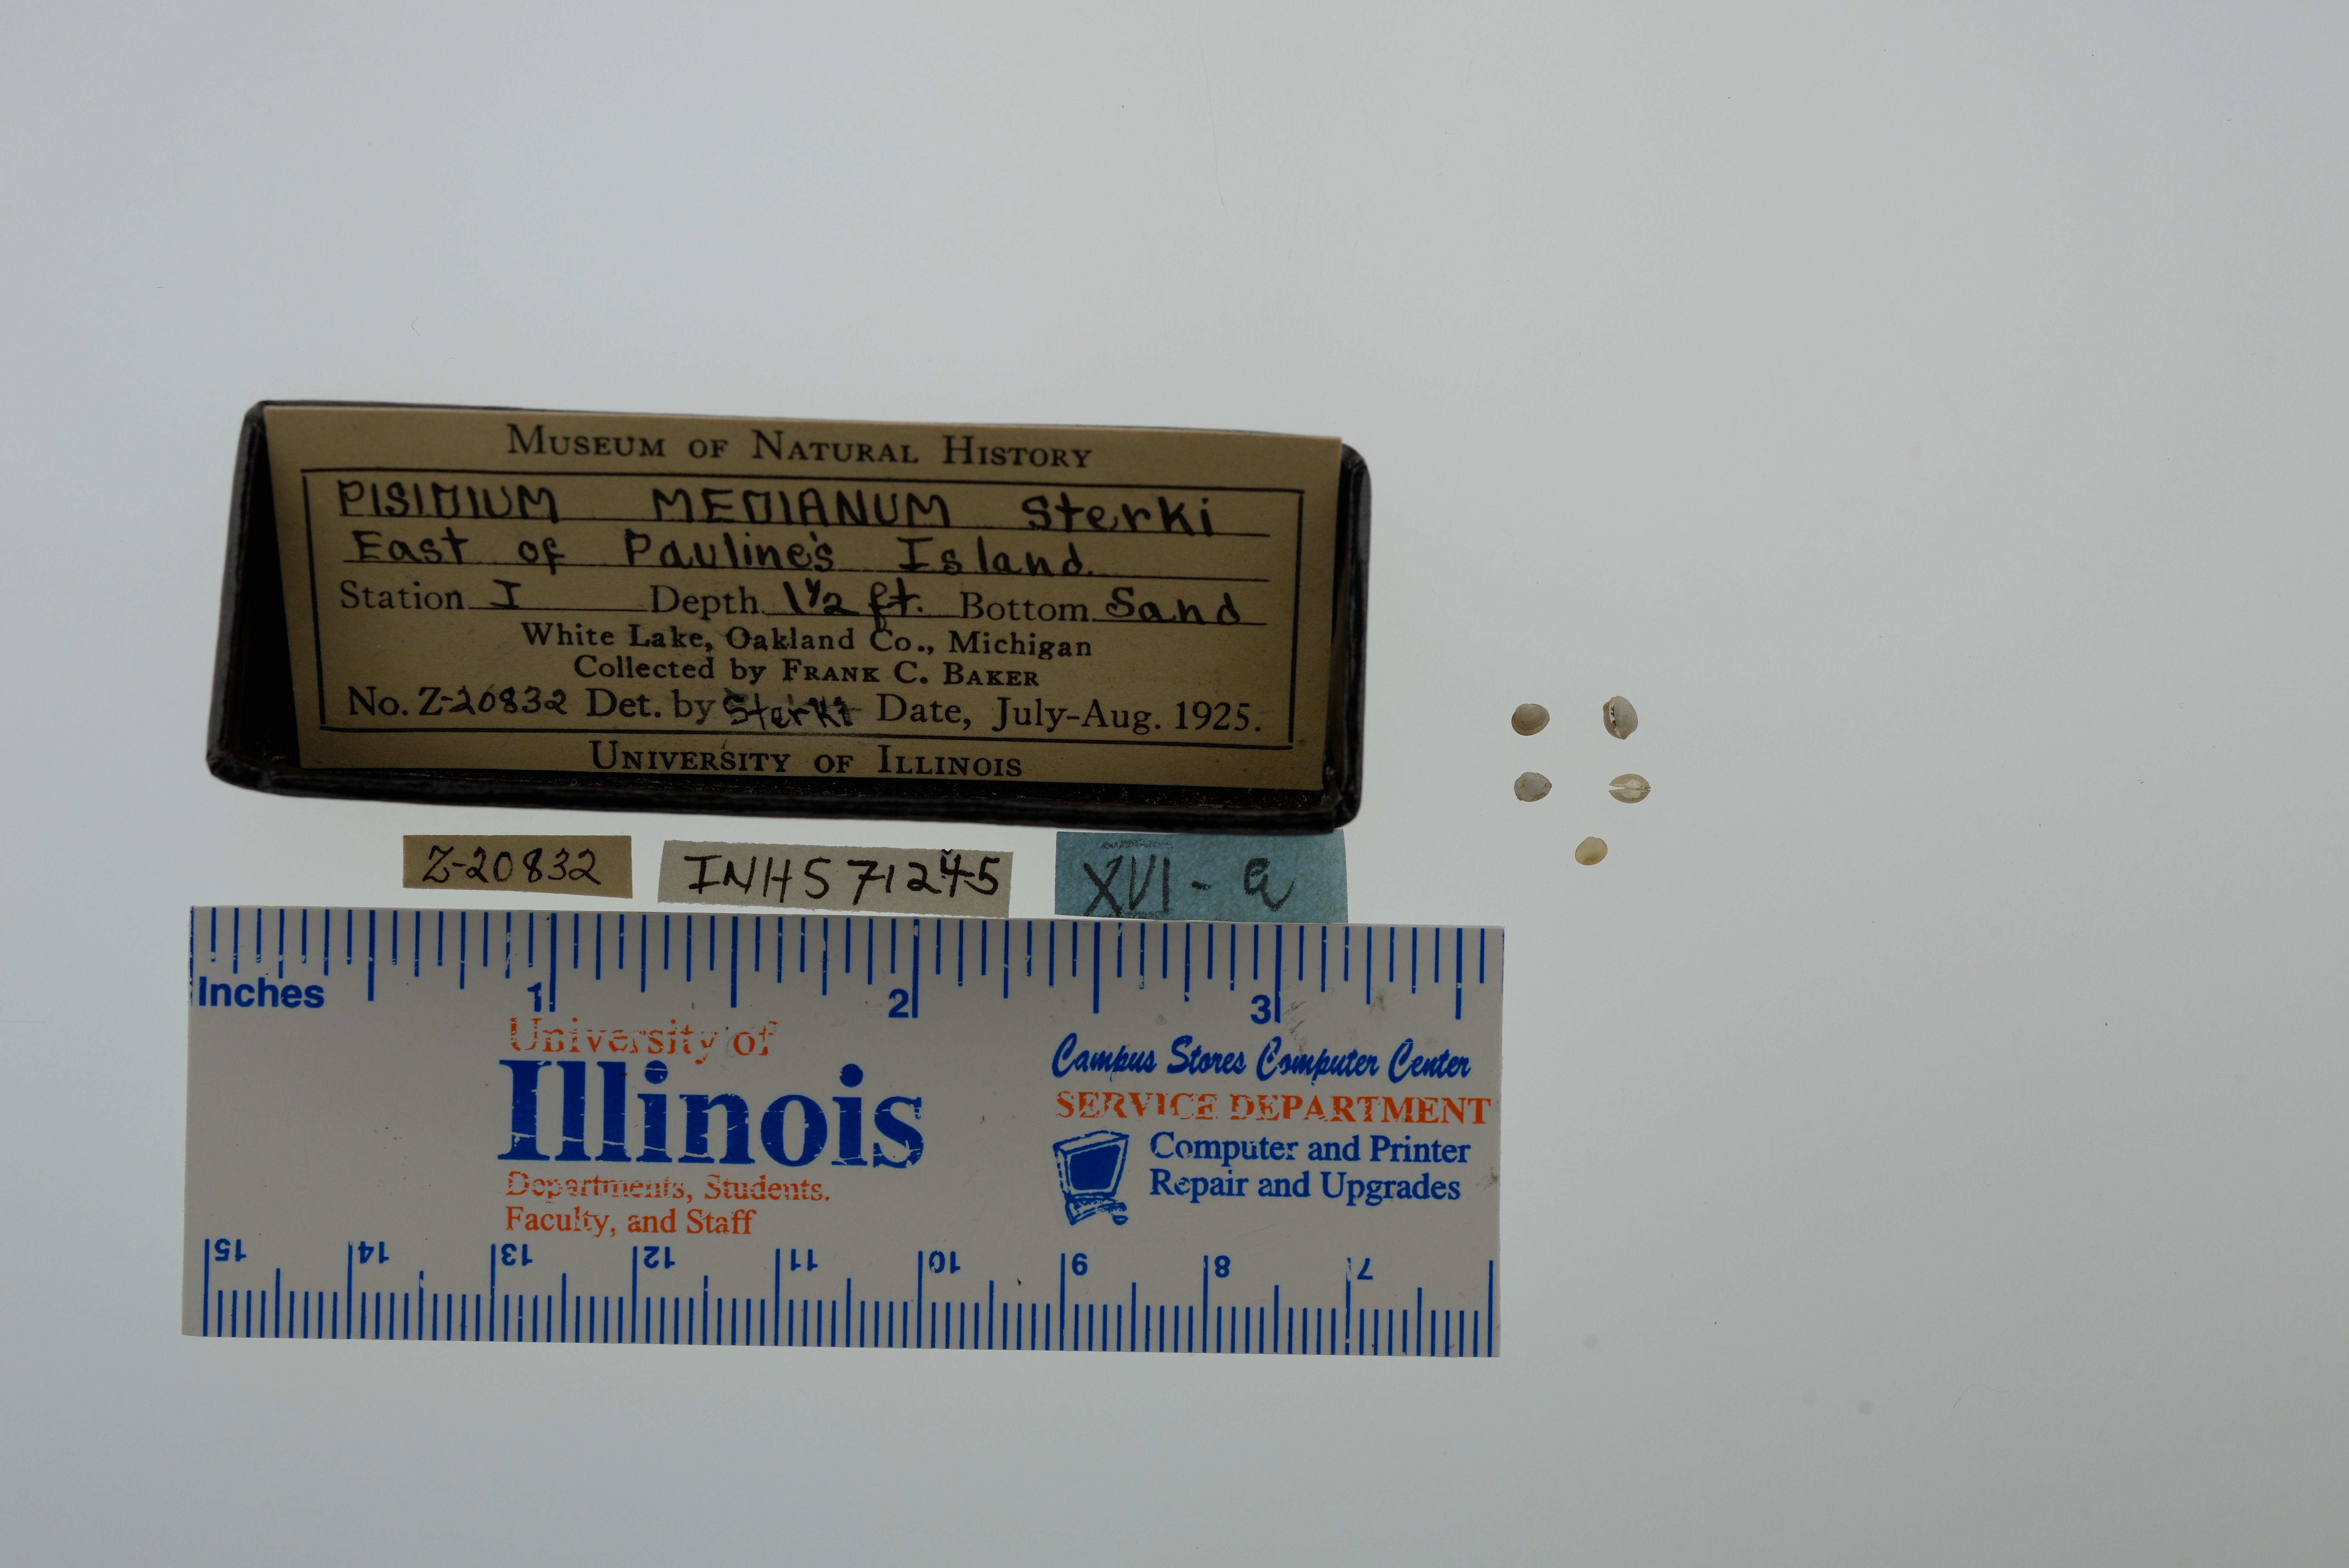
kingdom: Animalia
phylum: Mollusca
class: Bivalvia
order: Sphaeriida
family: Sphaeriidae
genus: Euglesa
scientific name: Euglesa ferruginea
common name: Rusty peaclam
